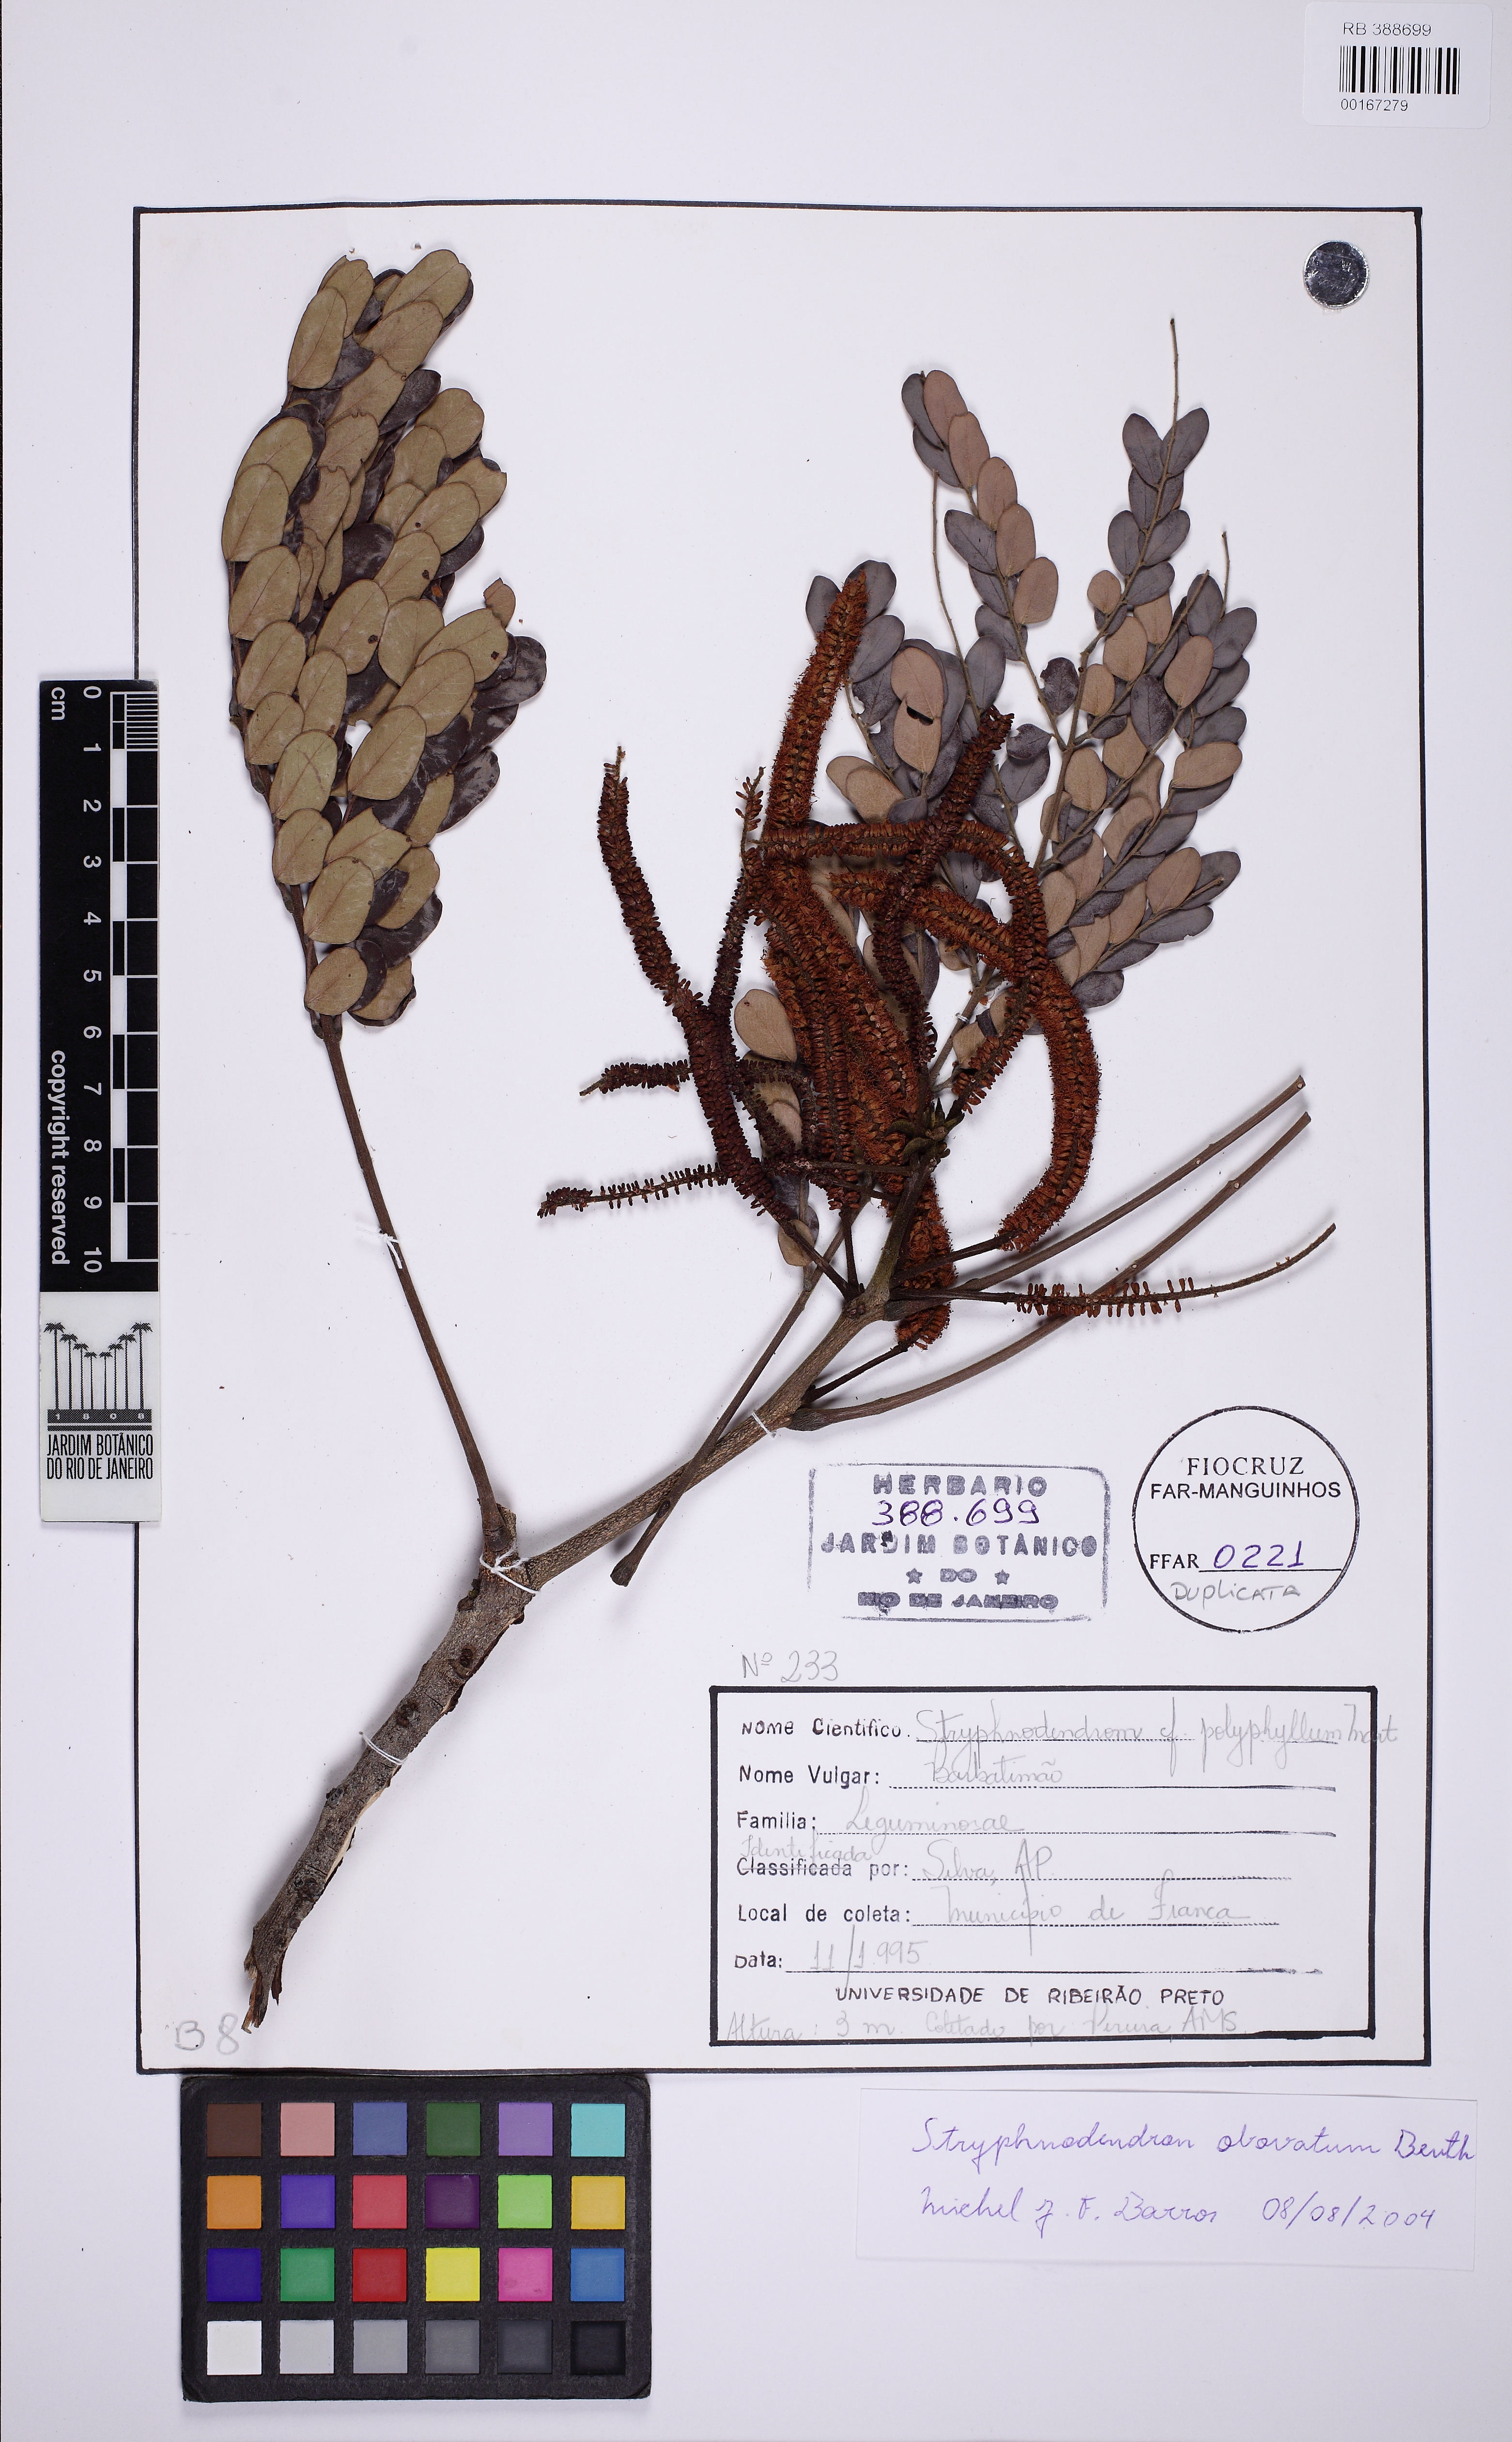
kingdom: Plantae
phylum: Tracheophyta
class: Magnoliopsida
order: Fabales
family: Fabaceae
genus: Stryphnodendron
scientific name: Stryphnodendron rotundifolium
